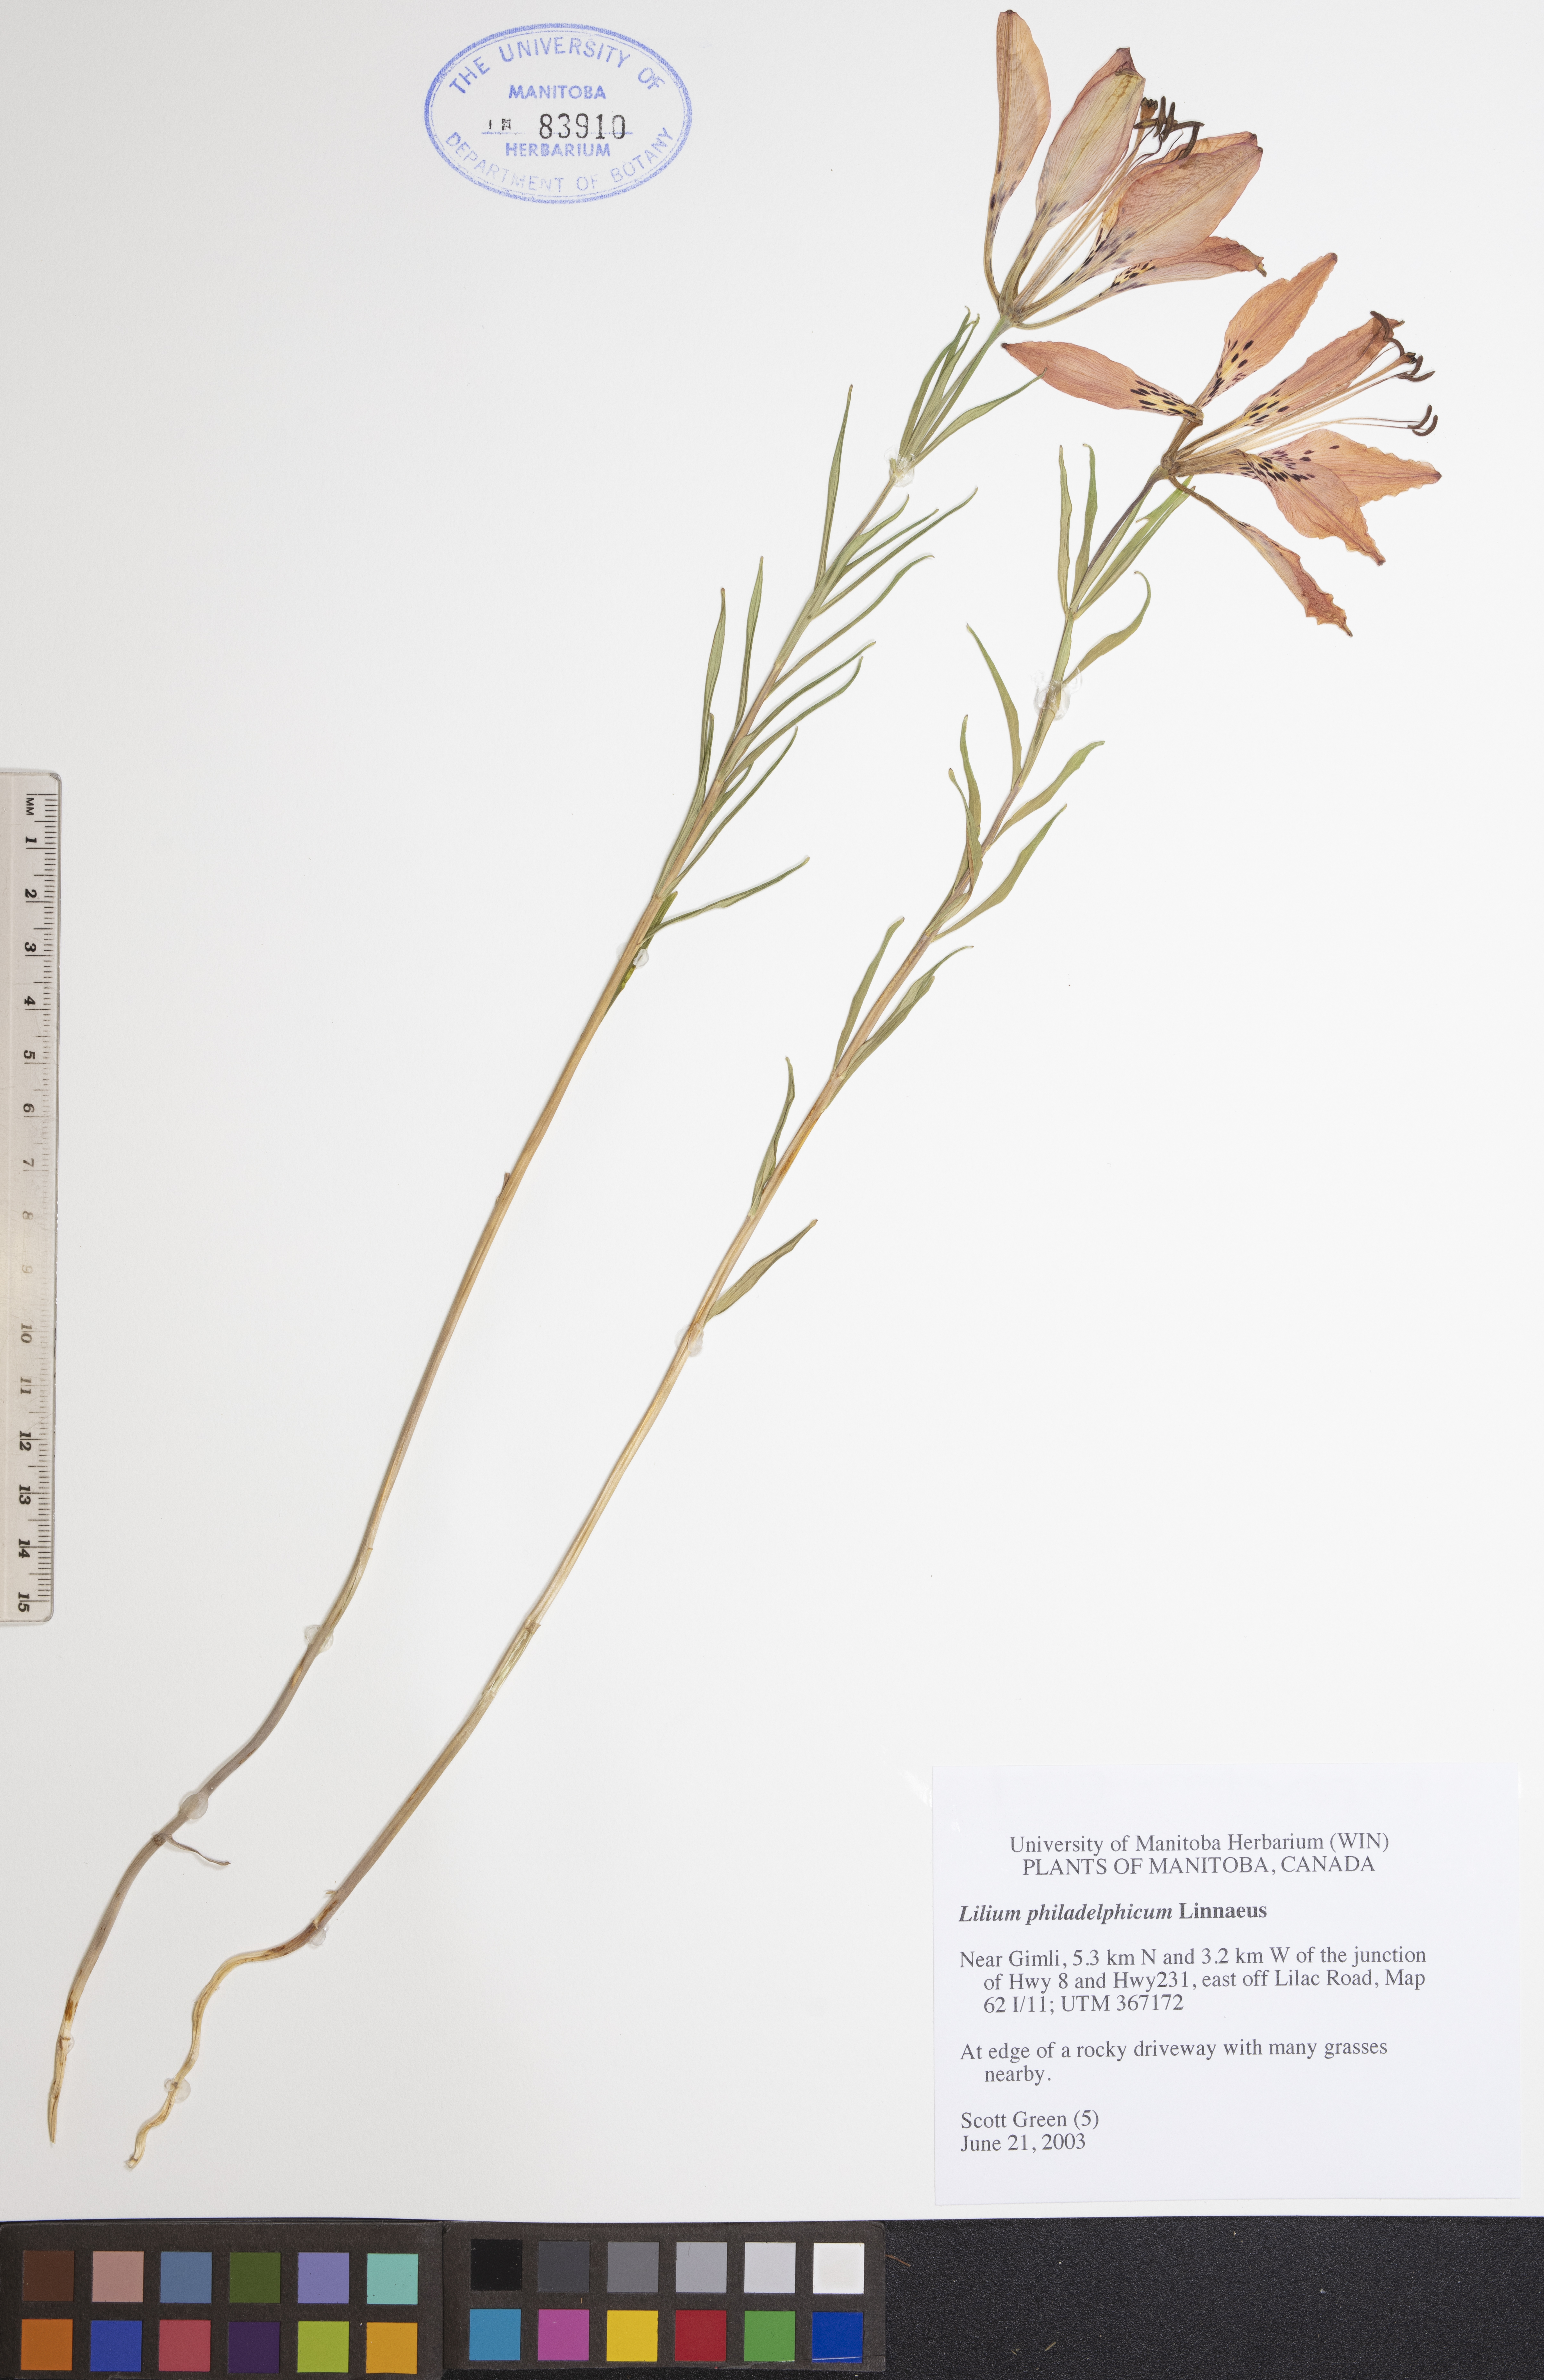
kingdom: Plantae
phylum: Tracheophyta
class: Liliopsida
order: Liliales
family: Liliaceae
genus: Lilium
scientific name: Lilium philadelphicum
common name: Red lily
